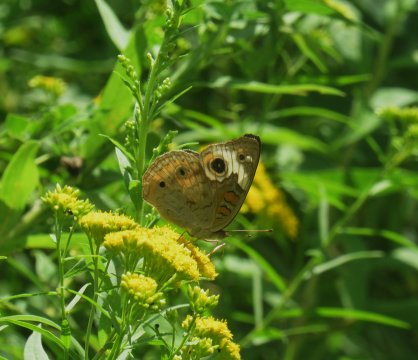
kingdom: Animalia
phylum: Arthropoda
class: Insecta
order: Lepidoptera
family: Nymphalidae
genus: Junonia
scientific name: Junonia coenia
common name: Common Buckeye
